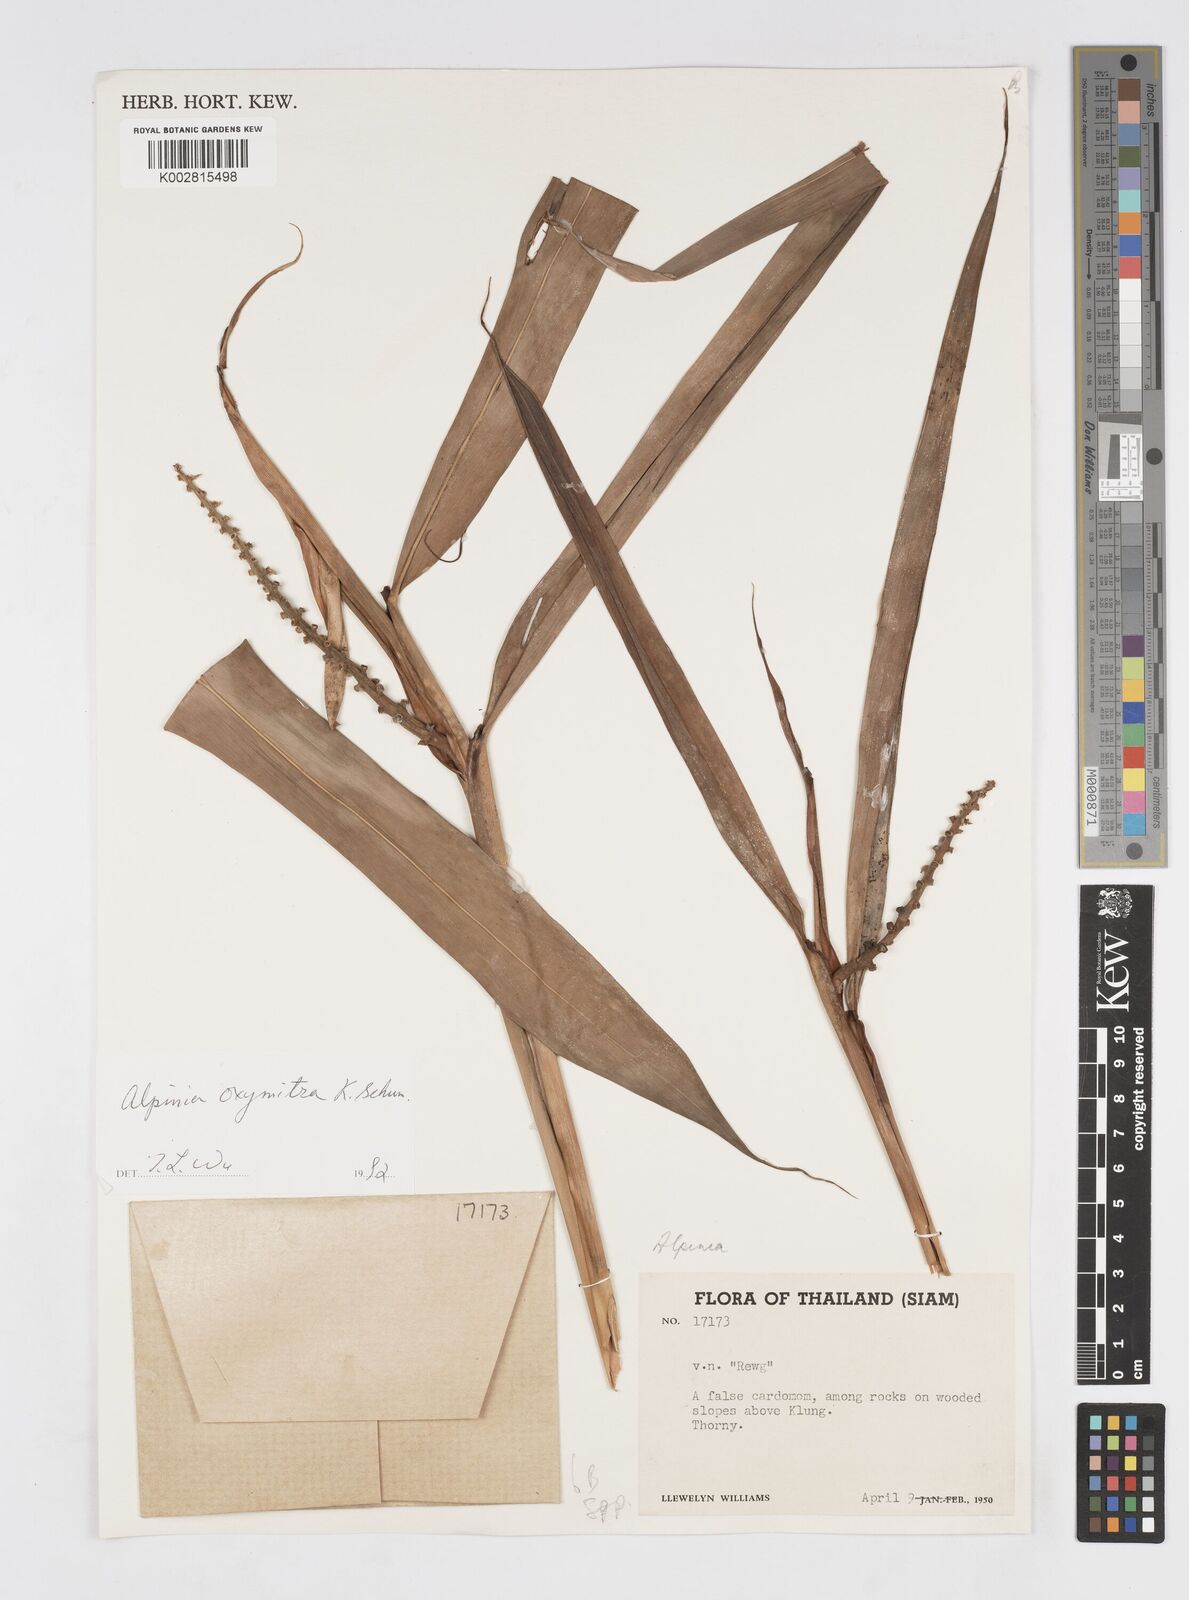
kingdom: Plantae
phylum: Tracheophyta
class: Liliopsida
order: Zingiberales
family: Zingiberaceae
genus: Alpinia
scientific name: Alpinia oxymitra
